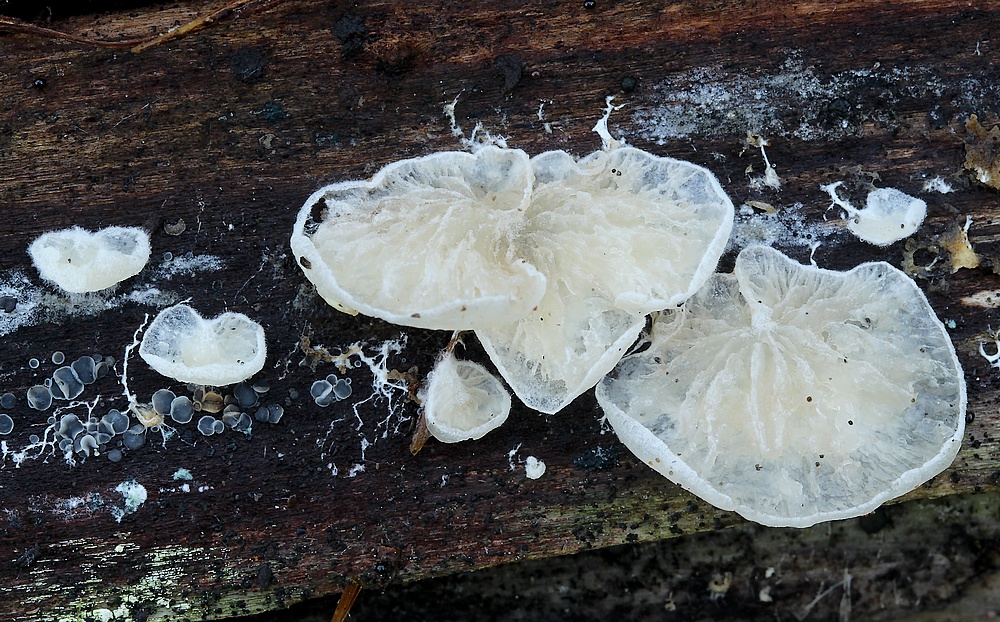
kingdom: Fungi
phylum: Basidiomycota
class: Agaricomycetes
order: Agaricales
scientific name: Agaricales
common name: champignonordenen
